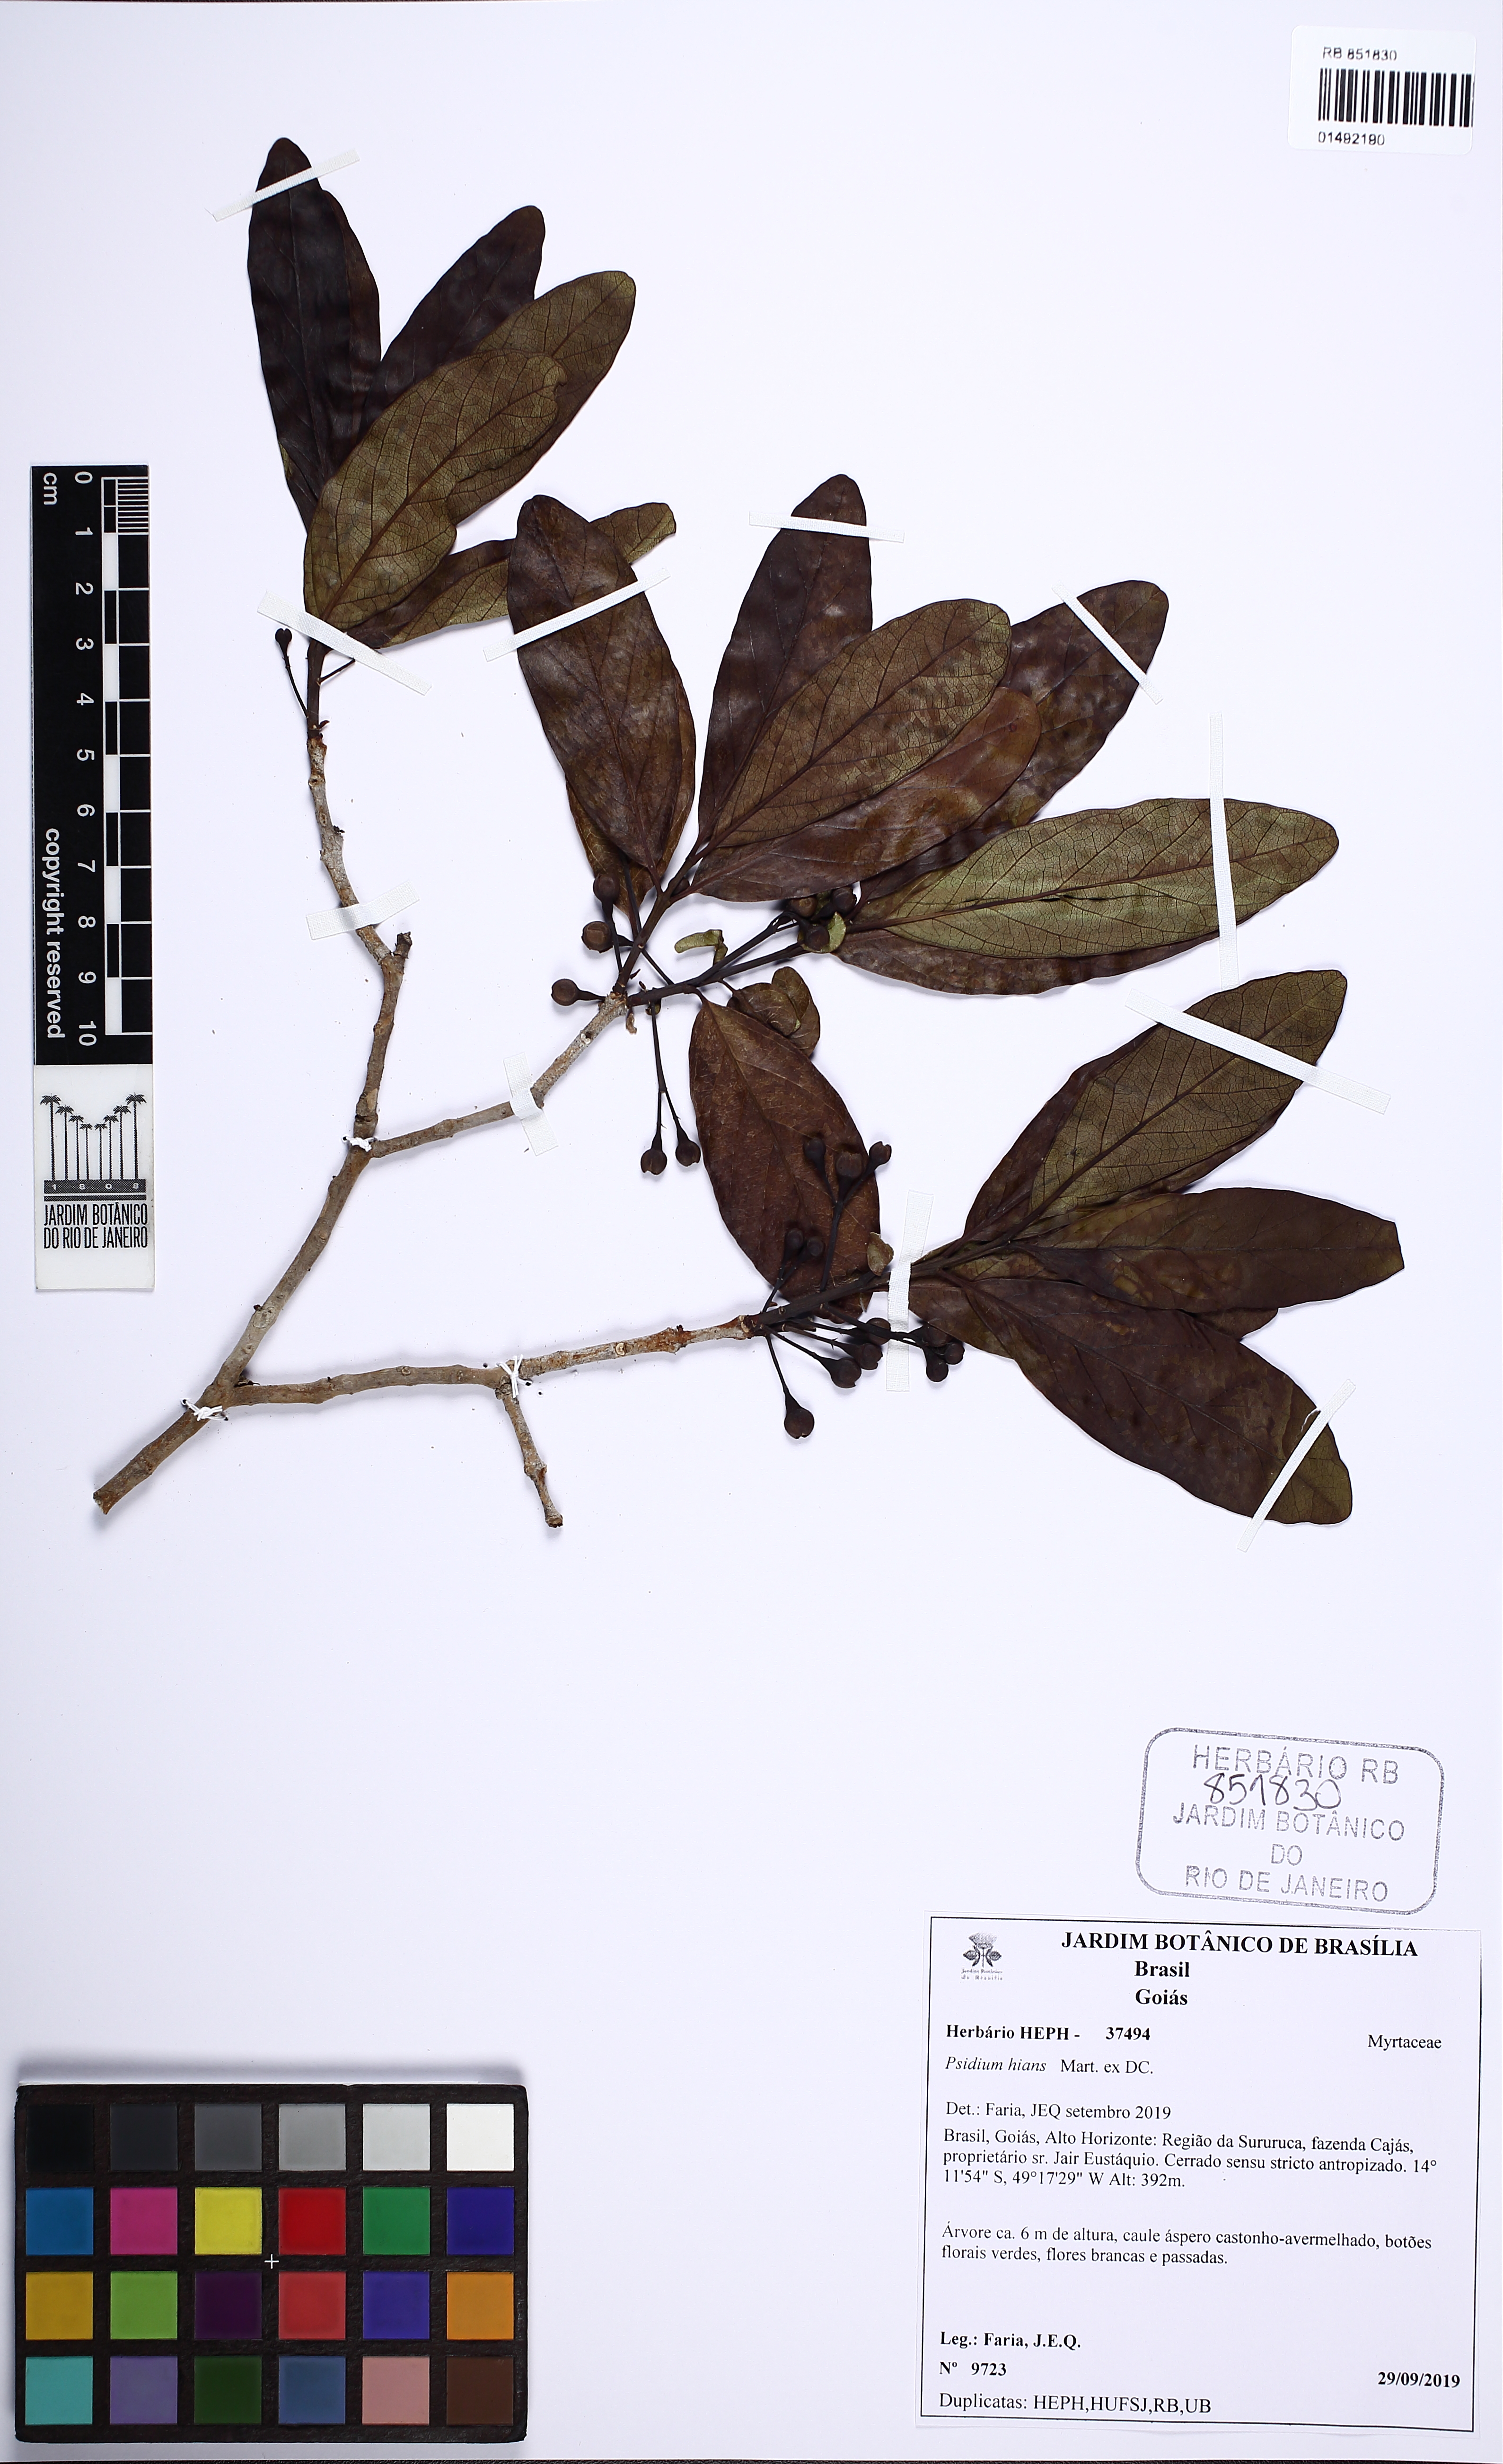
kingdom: Plantae
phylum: Tracheophyta
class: Magnoliopsida
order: Myrtales
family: Myrtaceae
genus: Psidium
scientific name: Psidium hians
